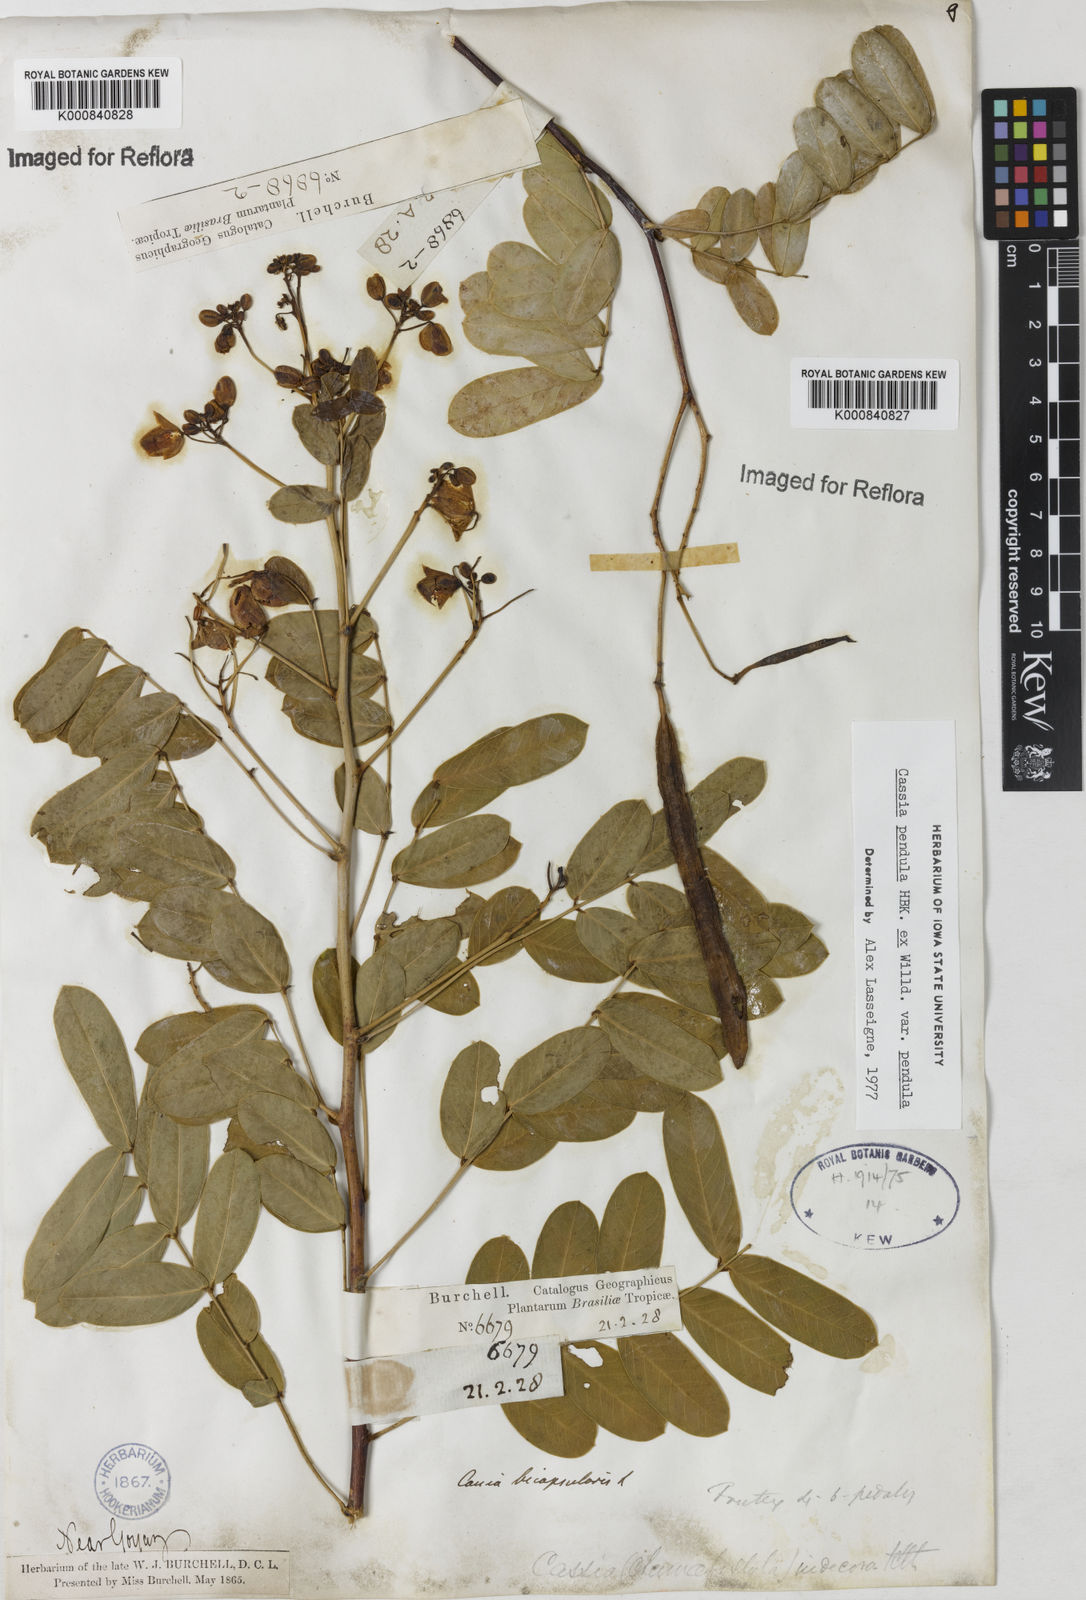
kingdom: Plantae
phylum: Tracheophyta
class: Magnoliopsida
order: Fabales
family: Fabaceae
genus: Senna
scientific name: Senna pendula
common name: Easter cassia
